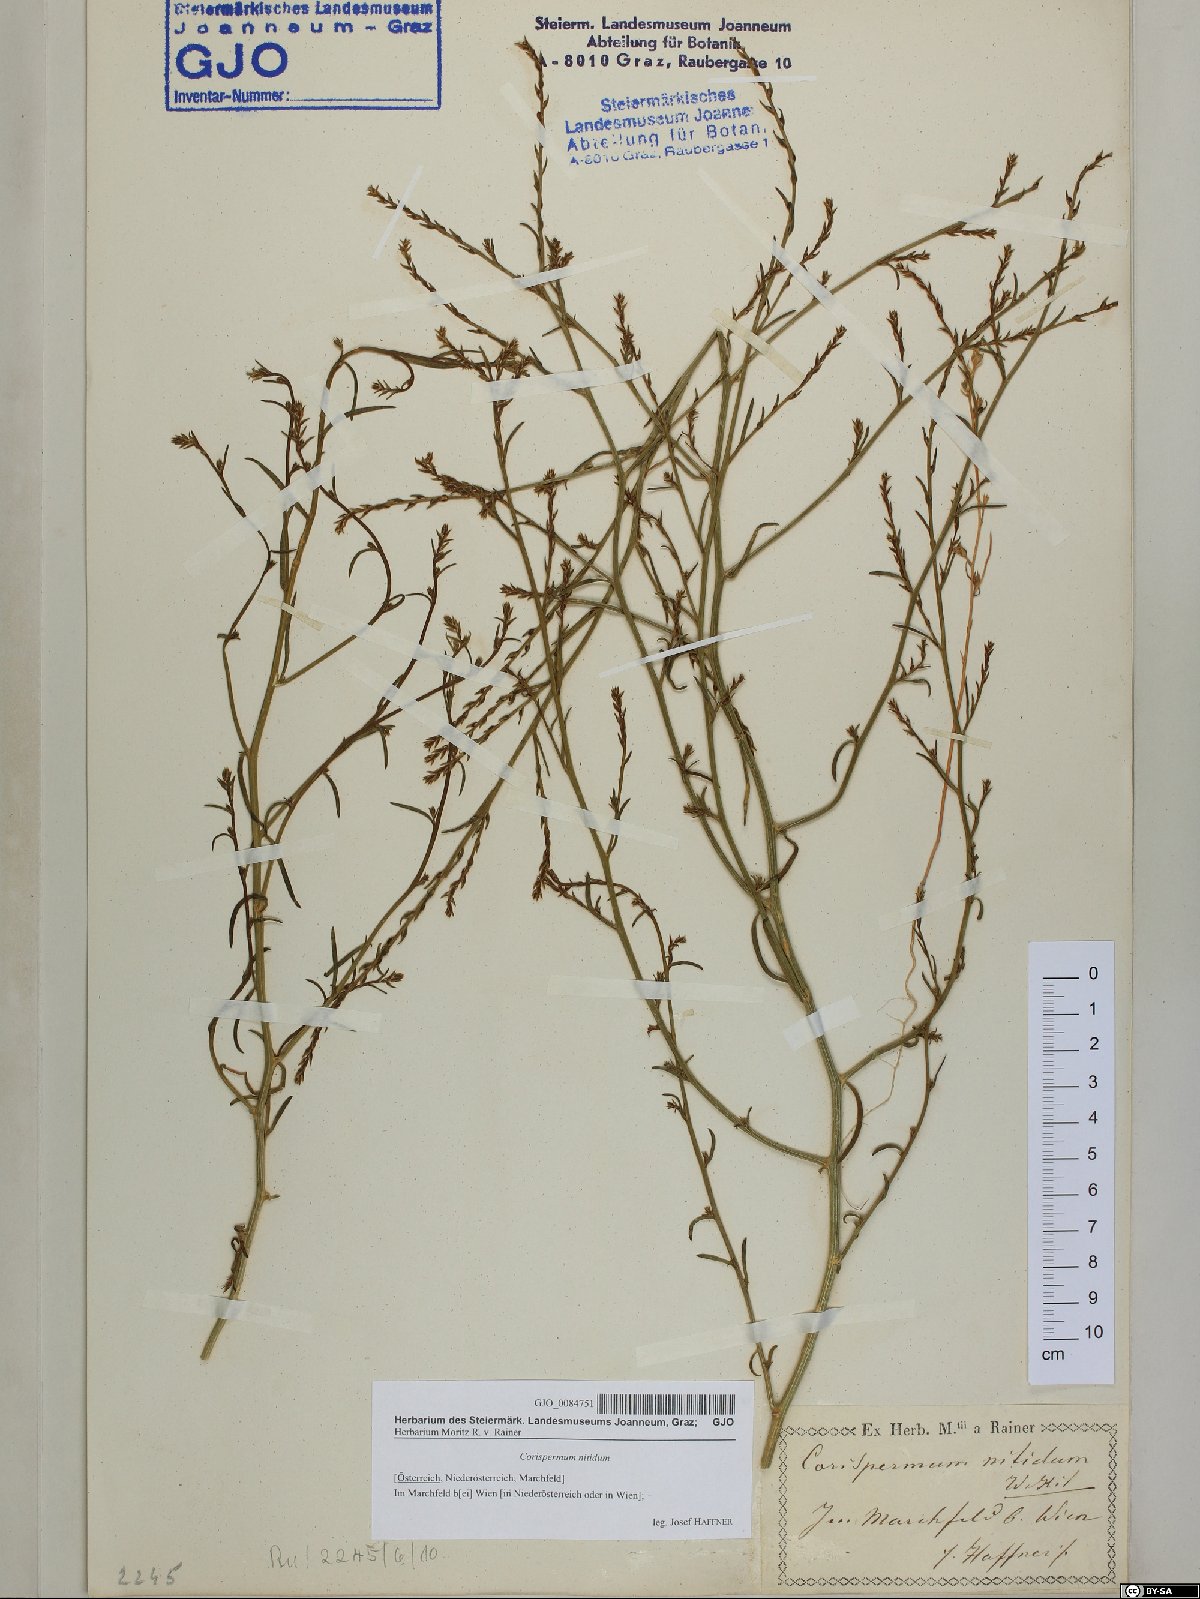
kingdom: Plantae
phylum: Tracheophyta
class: Magnoliopsida
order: Caryophyllales
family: Amaranthaceae
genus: Corispermum
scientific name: Corispermum nitidum
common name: Bugseed
